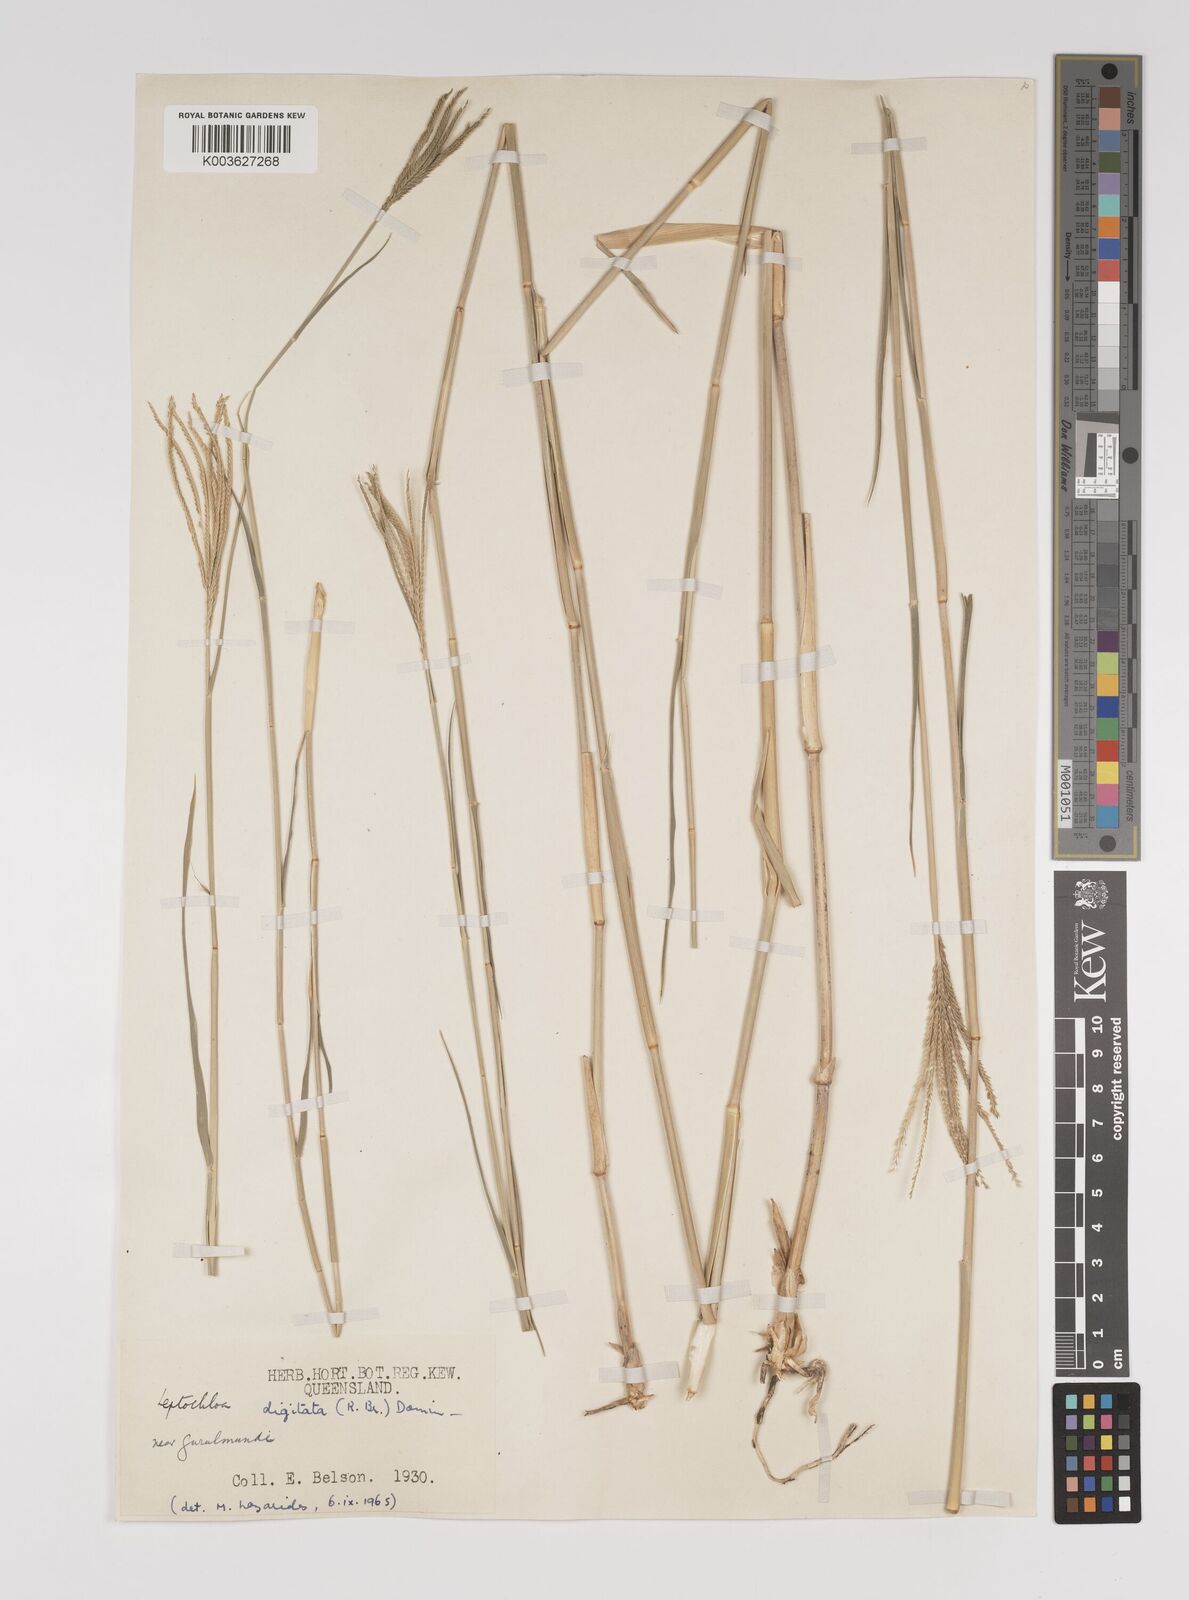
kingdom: Plantae
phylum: Tracheophyta
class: Liliopsida
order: Poales
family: Poaceae
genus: Leptochloa
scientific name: Leptochloa digitata
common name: Finger sprangletop
